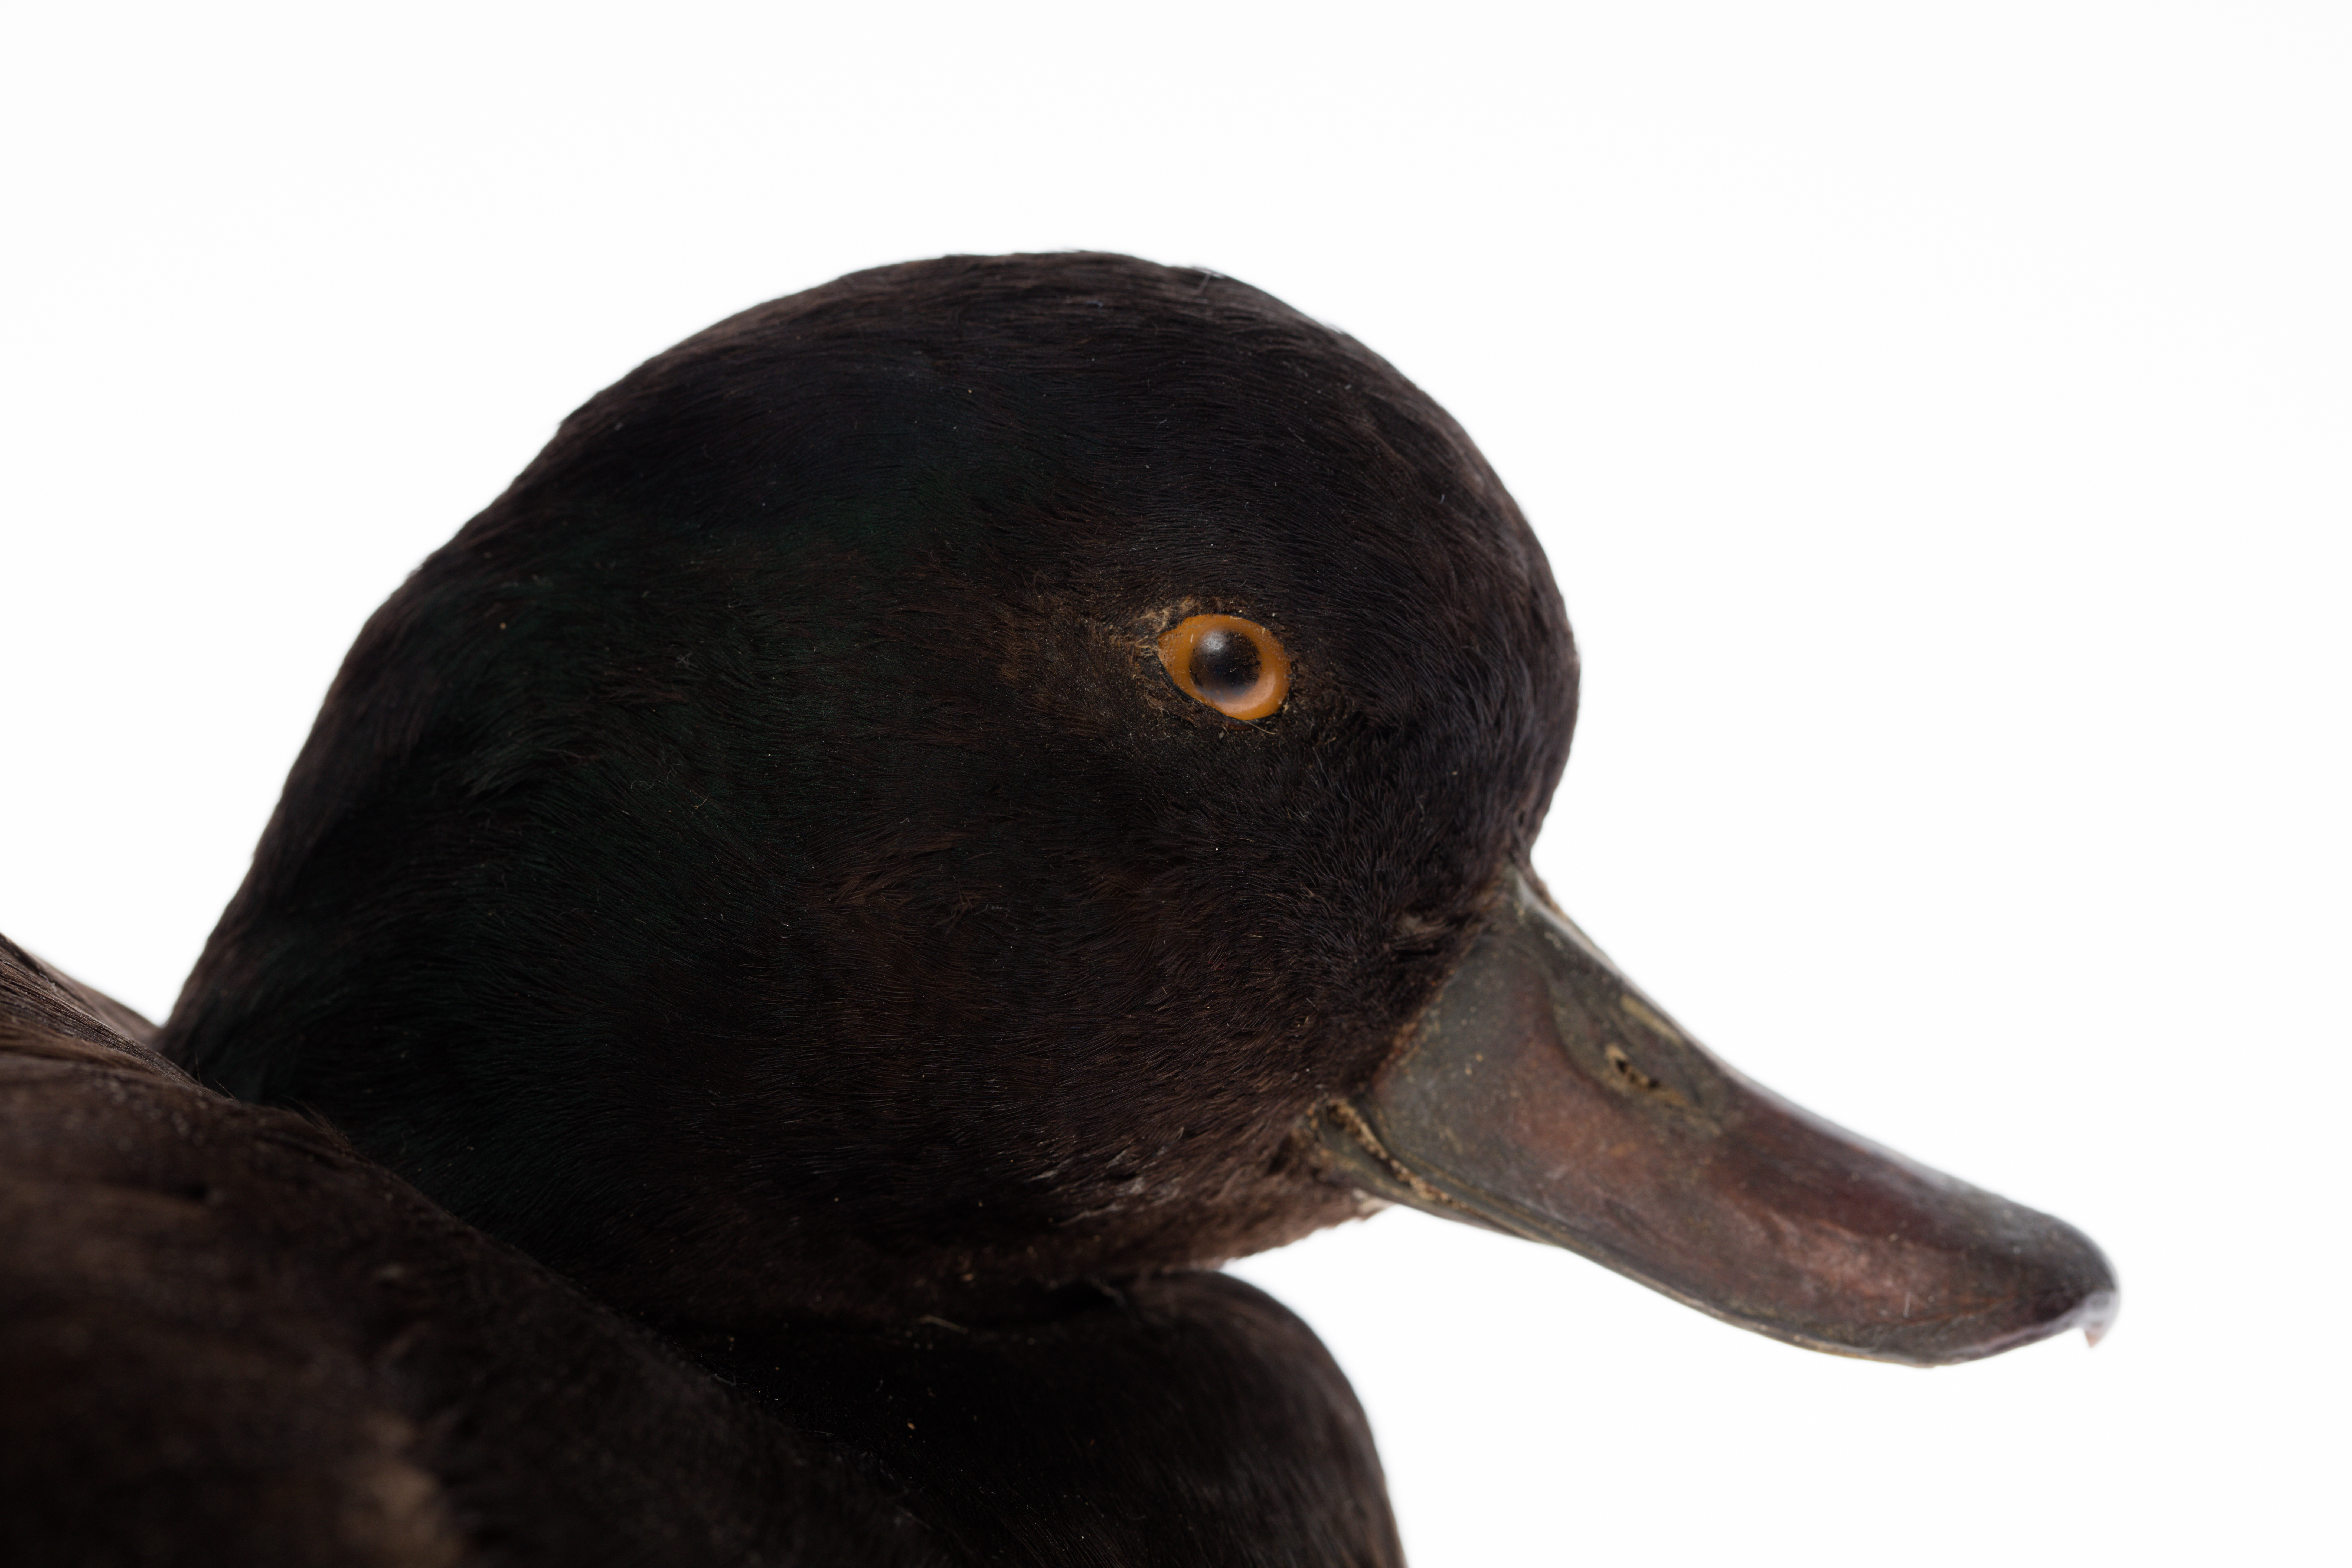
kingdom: Animalia
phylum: Chordata
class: Aves
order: Anseriformes
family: Anatidae
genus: Aythya
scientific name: Aythya novaeseelandiae
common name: New zealand scaup
